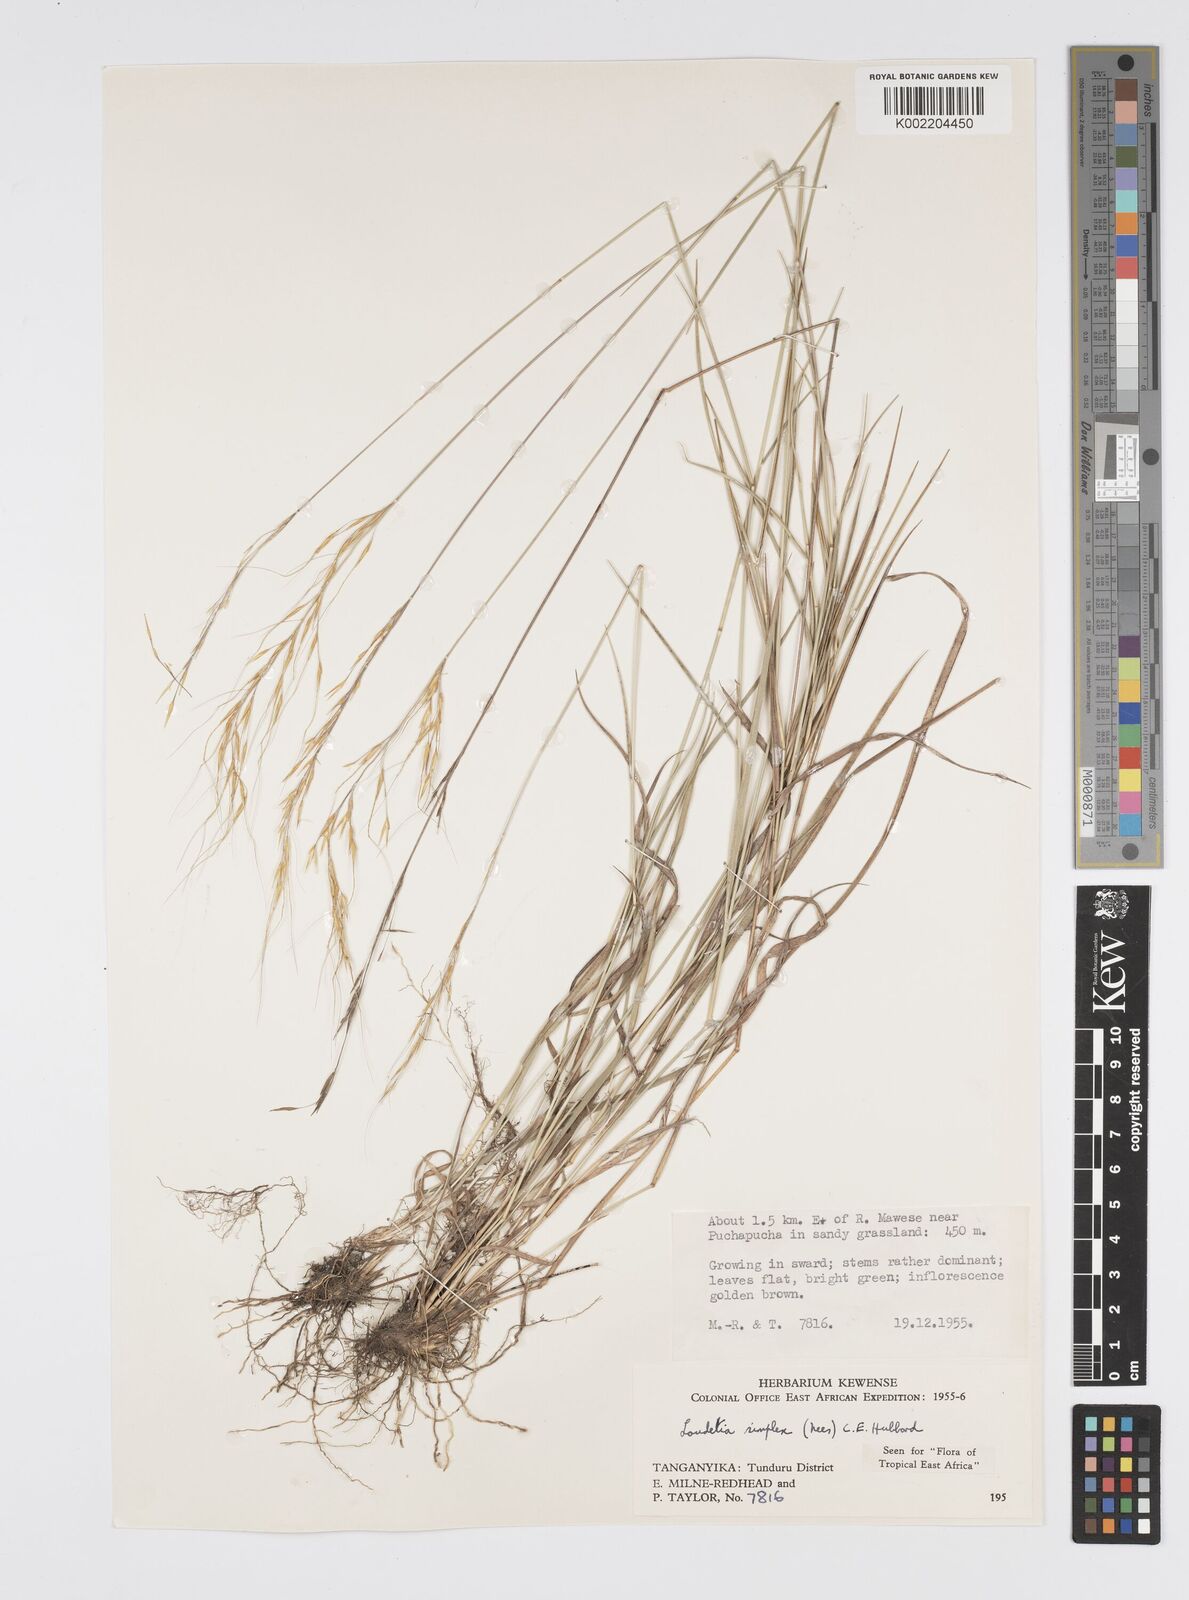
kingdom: Plantae
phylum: Tracheophyta
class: Liliopsida
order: Poales
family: Poaceae
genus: Loudetia
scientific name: Loudetia simplex
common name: Common russet grass
